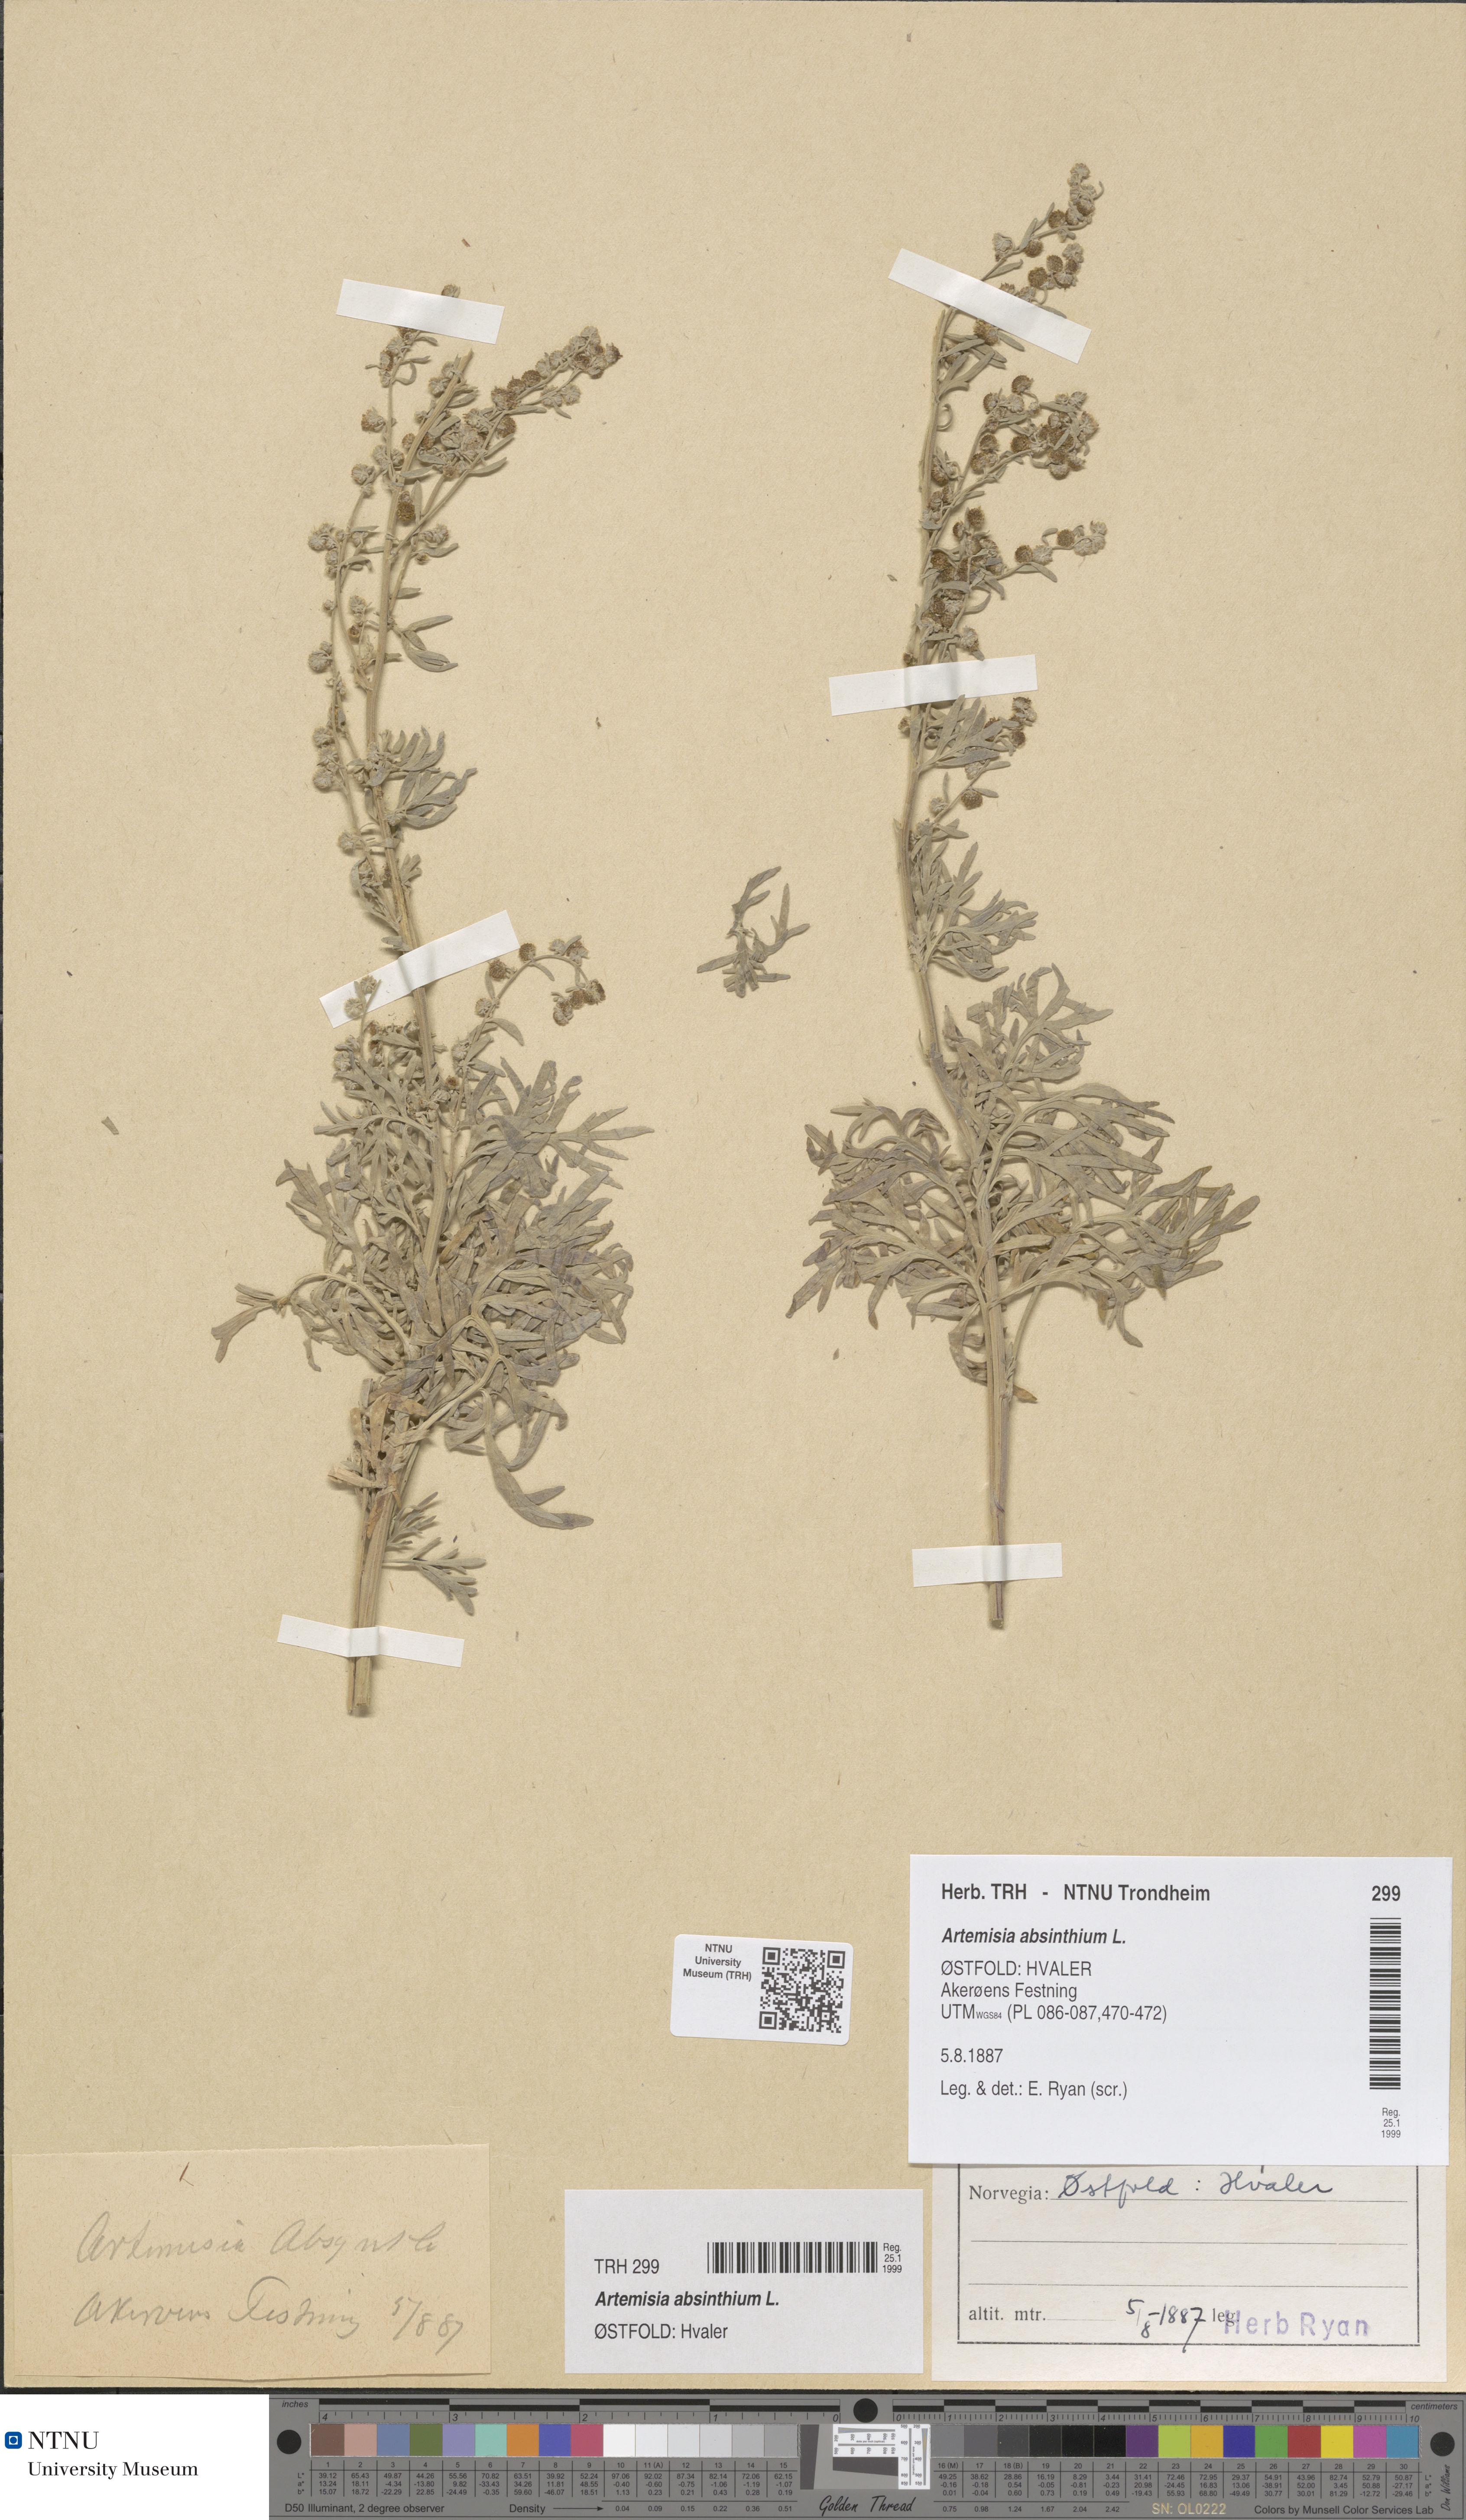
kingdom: Plantae
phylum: Tracheophyta
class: Magnoliopsida
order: Asterales
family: Asteraceae
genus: Artemisia
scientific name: Artemisia absinthium
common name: Wormwood
